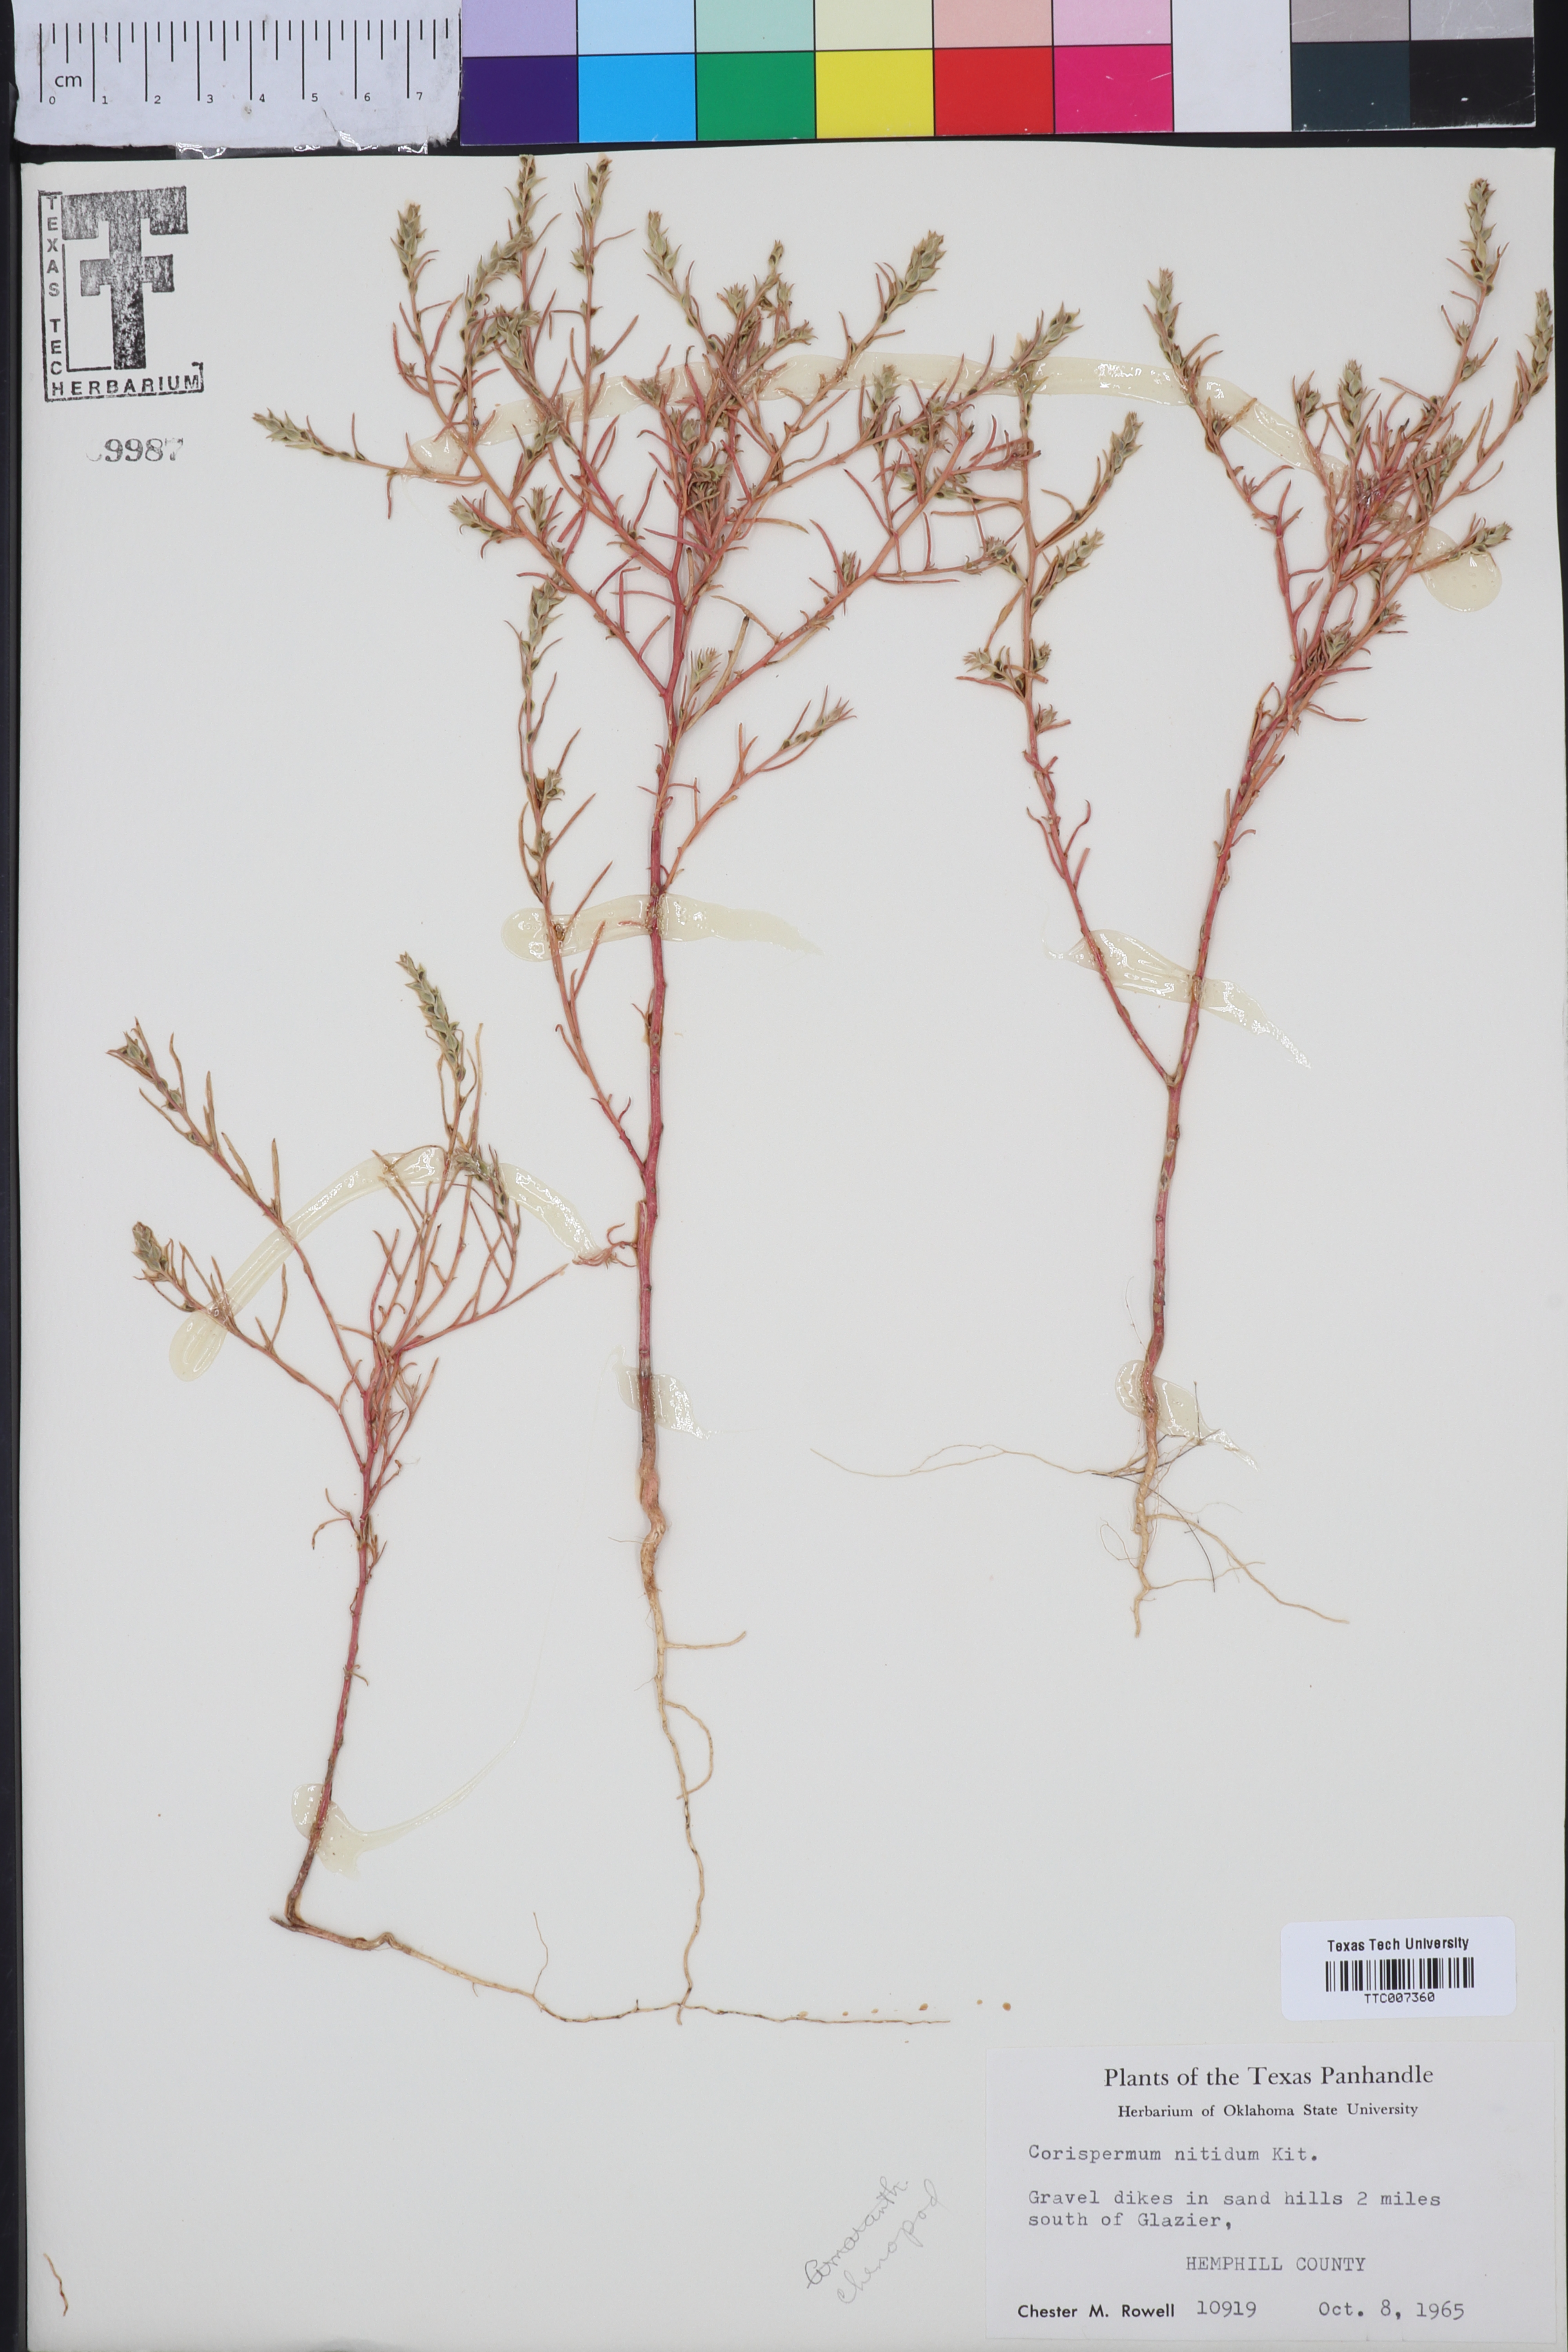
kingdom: Plantae
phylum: Tracheophyta
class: Magnoliopsida
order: Caryophyllales
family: Amaranthaceae
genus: Corispermum
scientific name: Corispermum nitidum
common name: Bugseed
